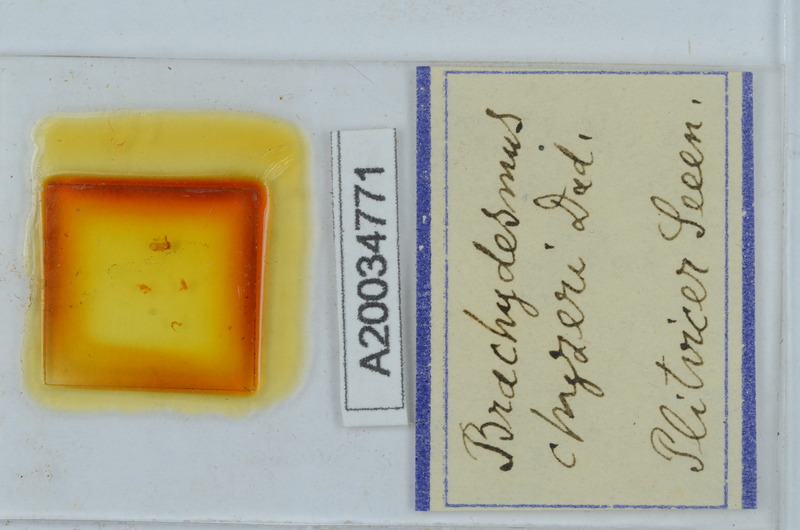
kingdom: Animalia
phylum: Arthropoda
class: Diplopoda
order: Polydesmida
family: Polydesmidae
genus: Brachydesmus
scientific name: Brachydesmus chyzeri
